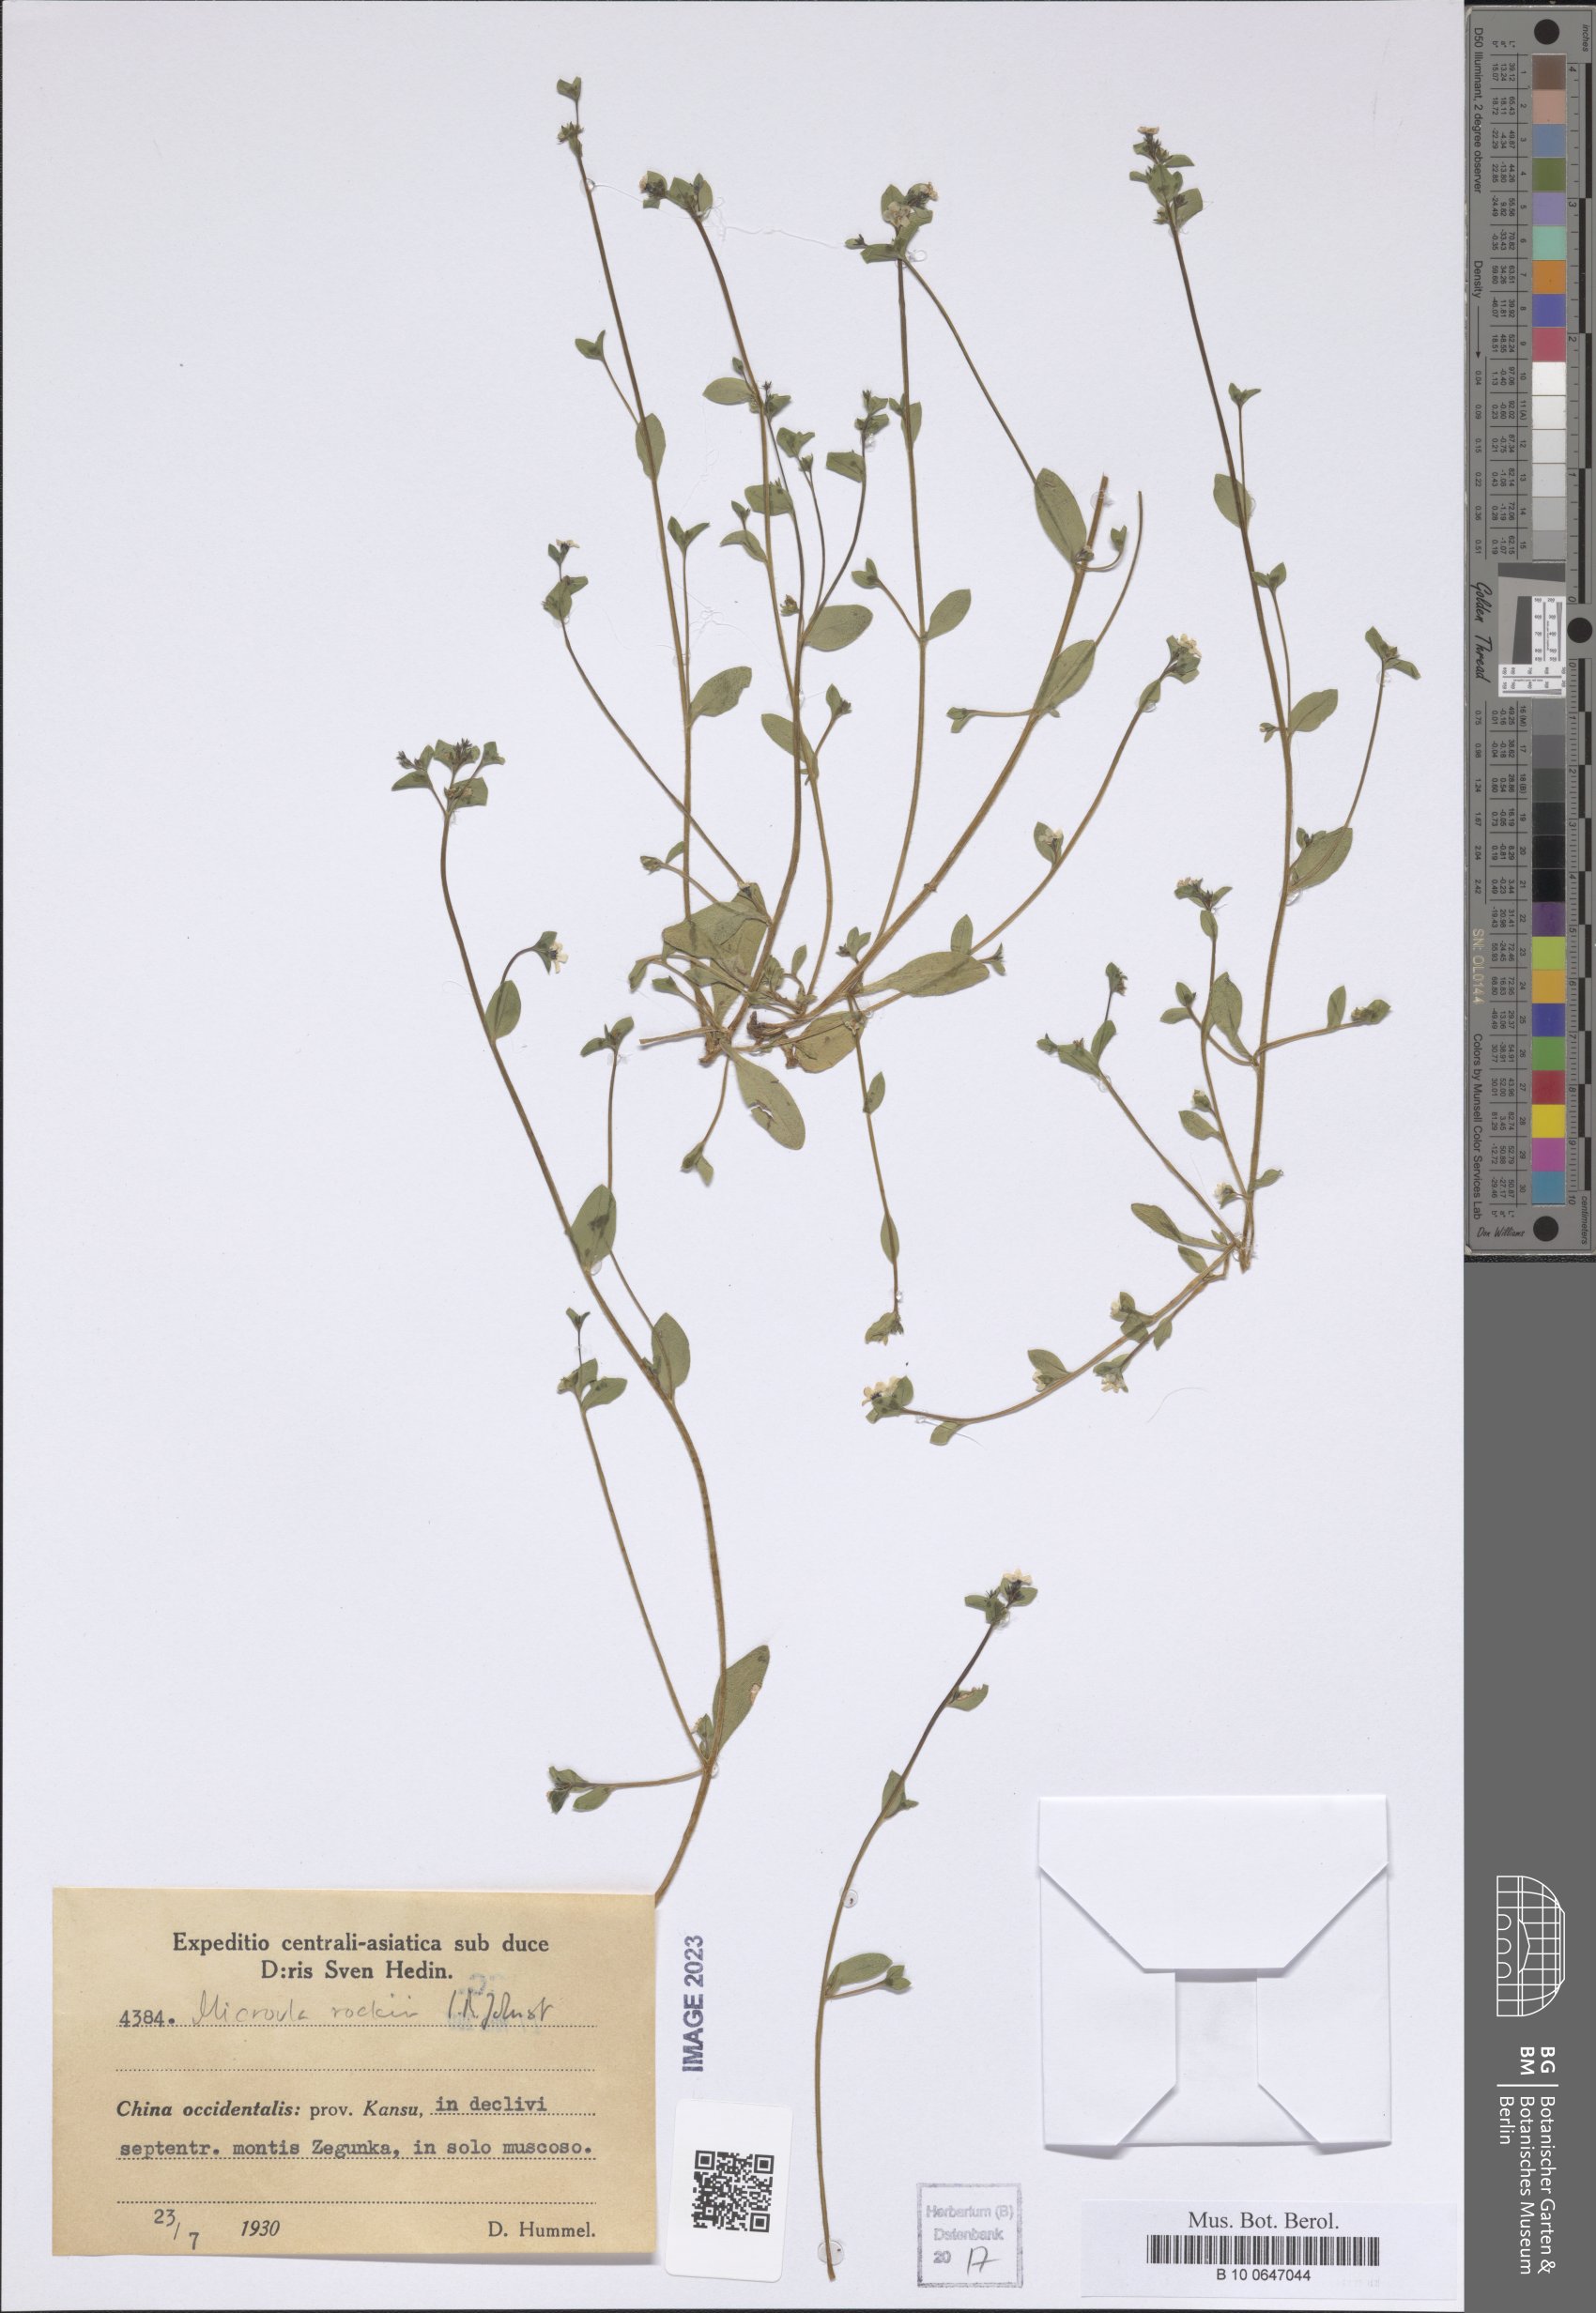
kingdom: Plantae
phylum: Tracheophyta
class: Magnoliopsida
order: Boraginales
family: Boraginaceae
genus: Microula
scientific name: Microula rockii
